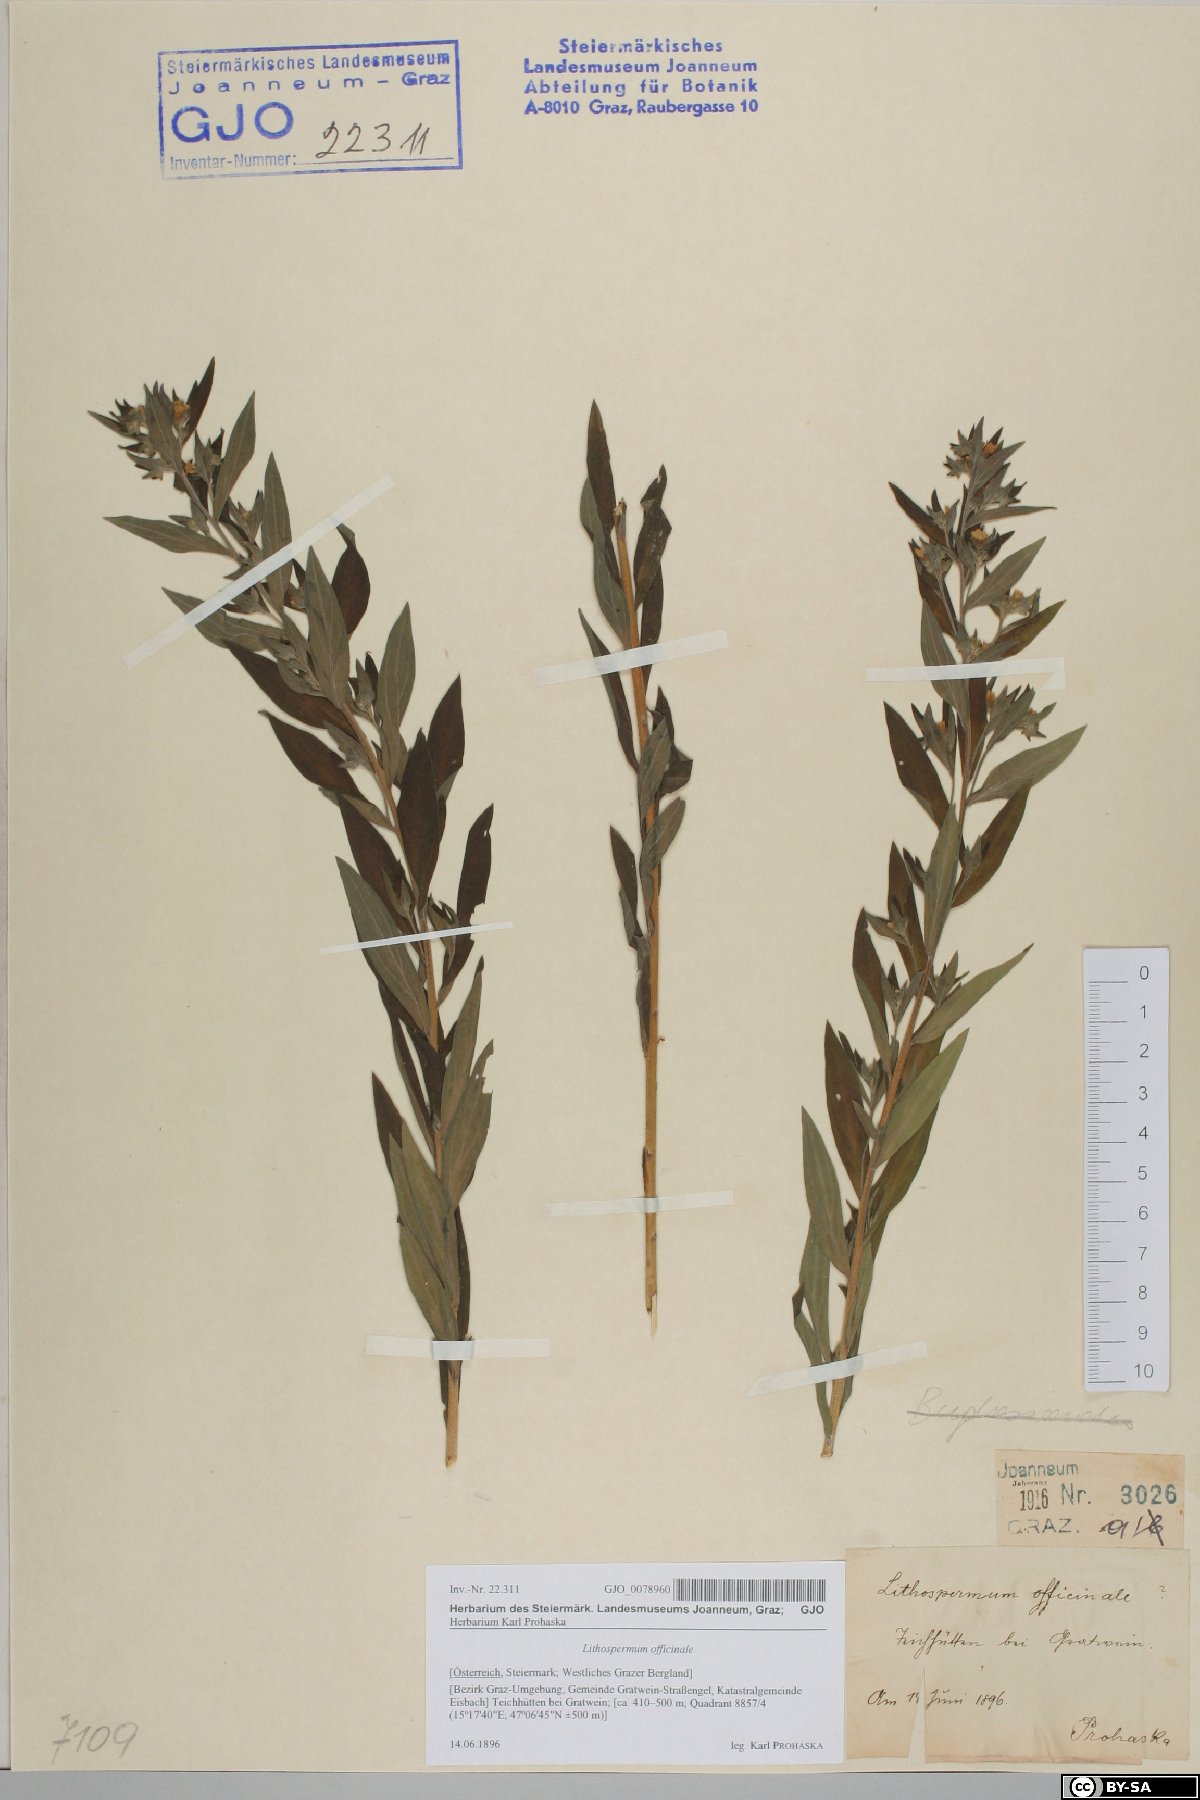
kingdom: Plantae
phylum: Tracheophyta
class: Magnoliopsida
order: Boraginales
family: Boraginaceae
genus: Lithospermum
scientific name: Lithospermum officinale
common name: Common gromwell
